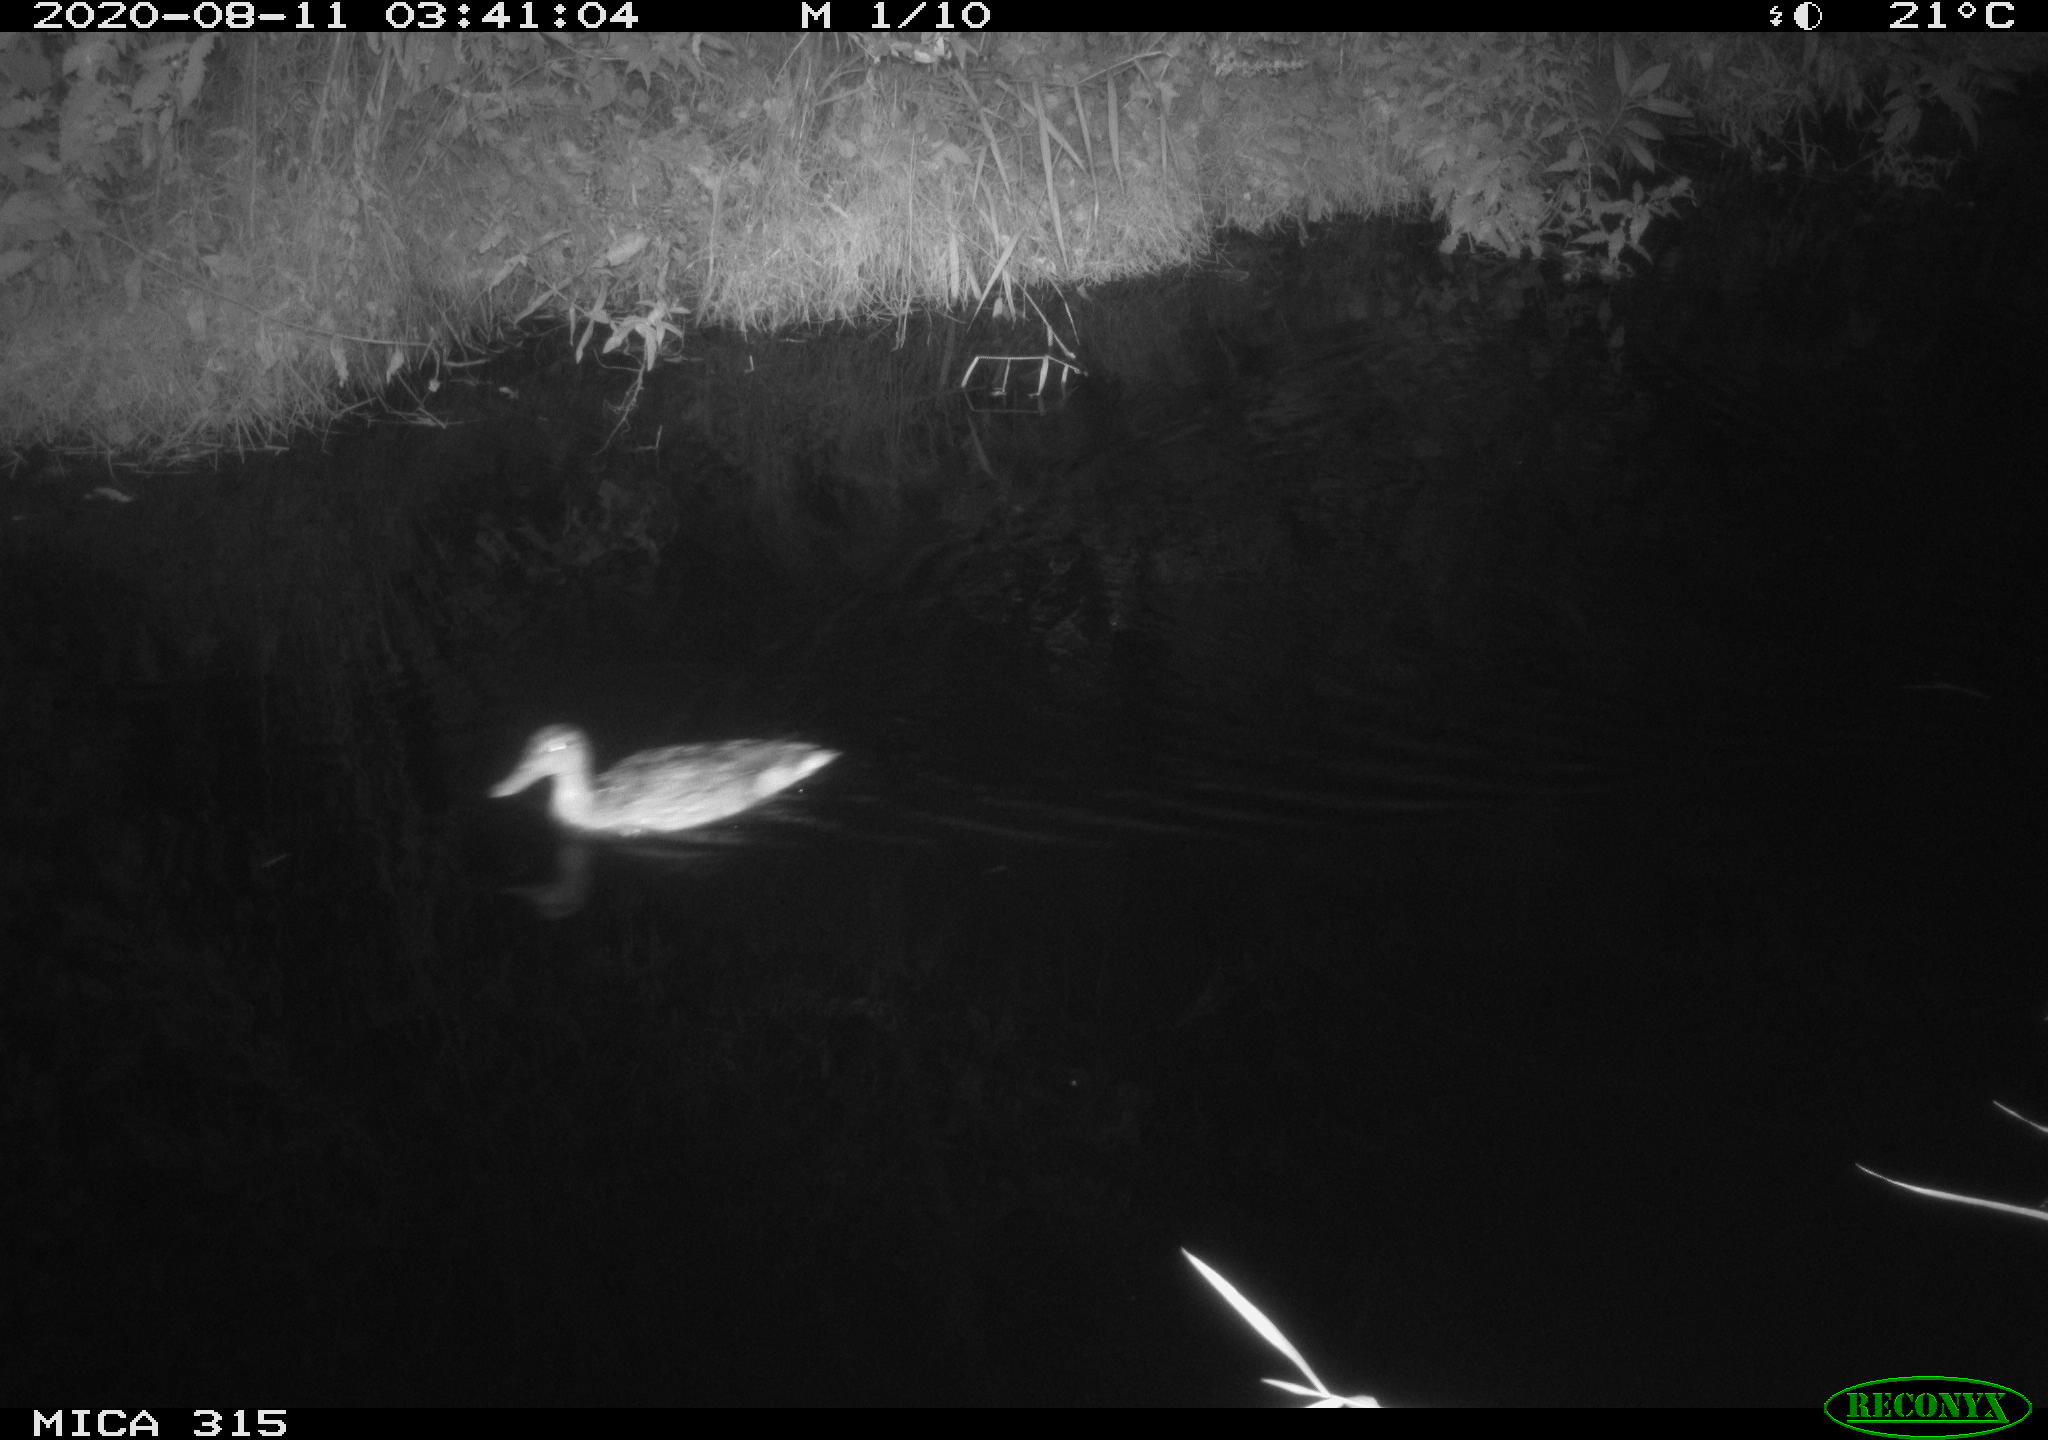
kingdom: Animalia
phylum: Chordata
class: Aves
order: Anseriformes
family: Anatidae
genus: Anas
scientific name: Anas platyrhynchos
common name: Mallard
